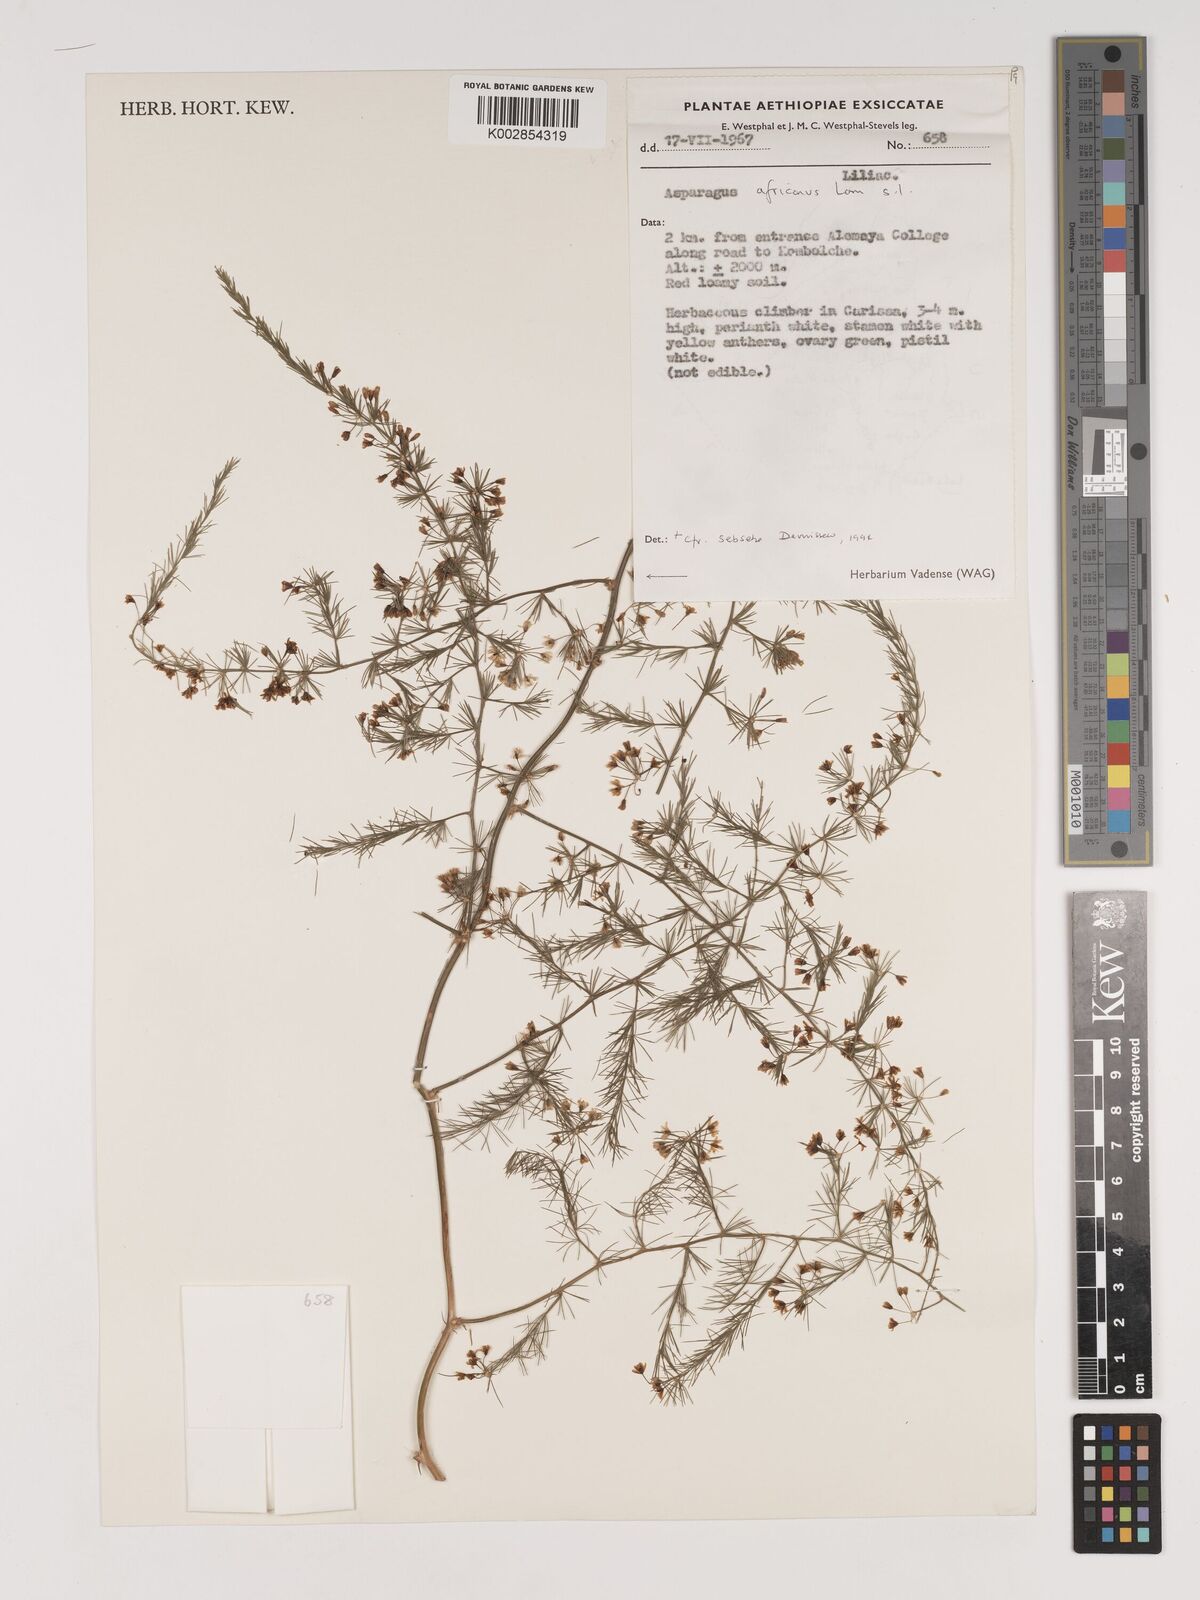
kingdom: Plantae
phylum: Tracheophyta
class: Liliopsida
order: Asparagales
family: Asparagaceae
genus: Asparagus
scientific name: Asparagus africanus
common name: Asparagus-fern
